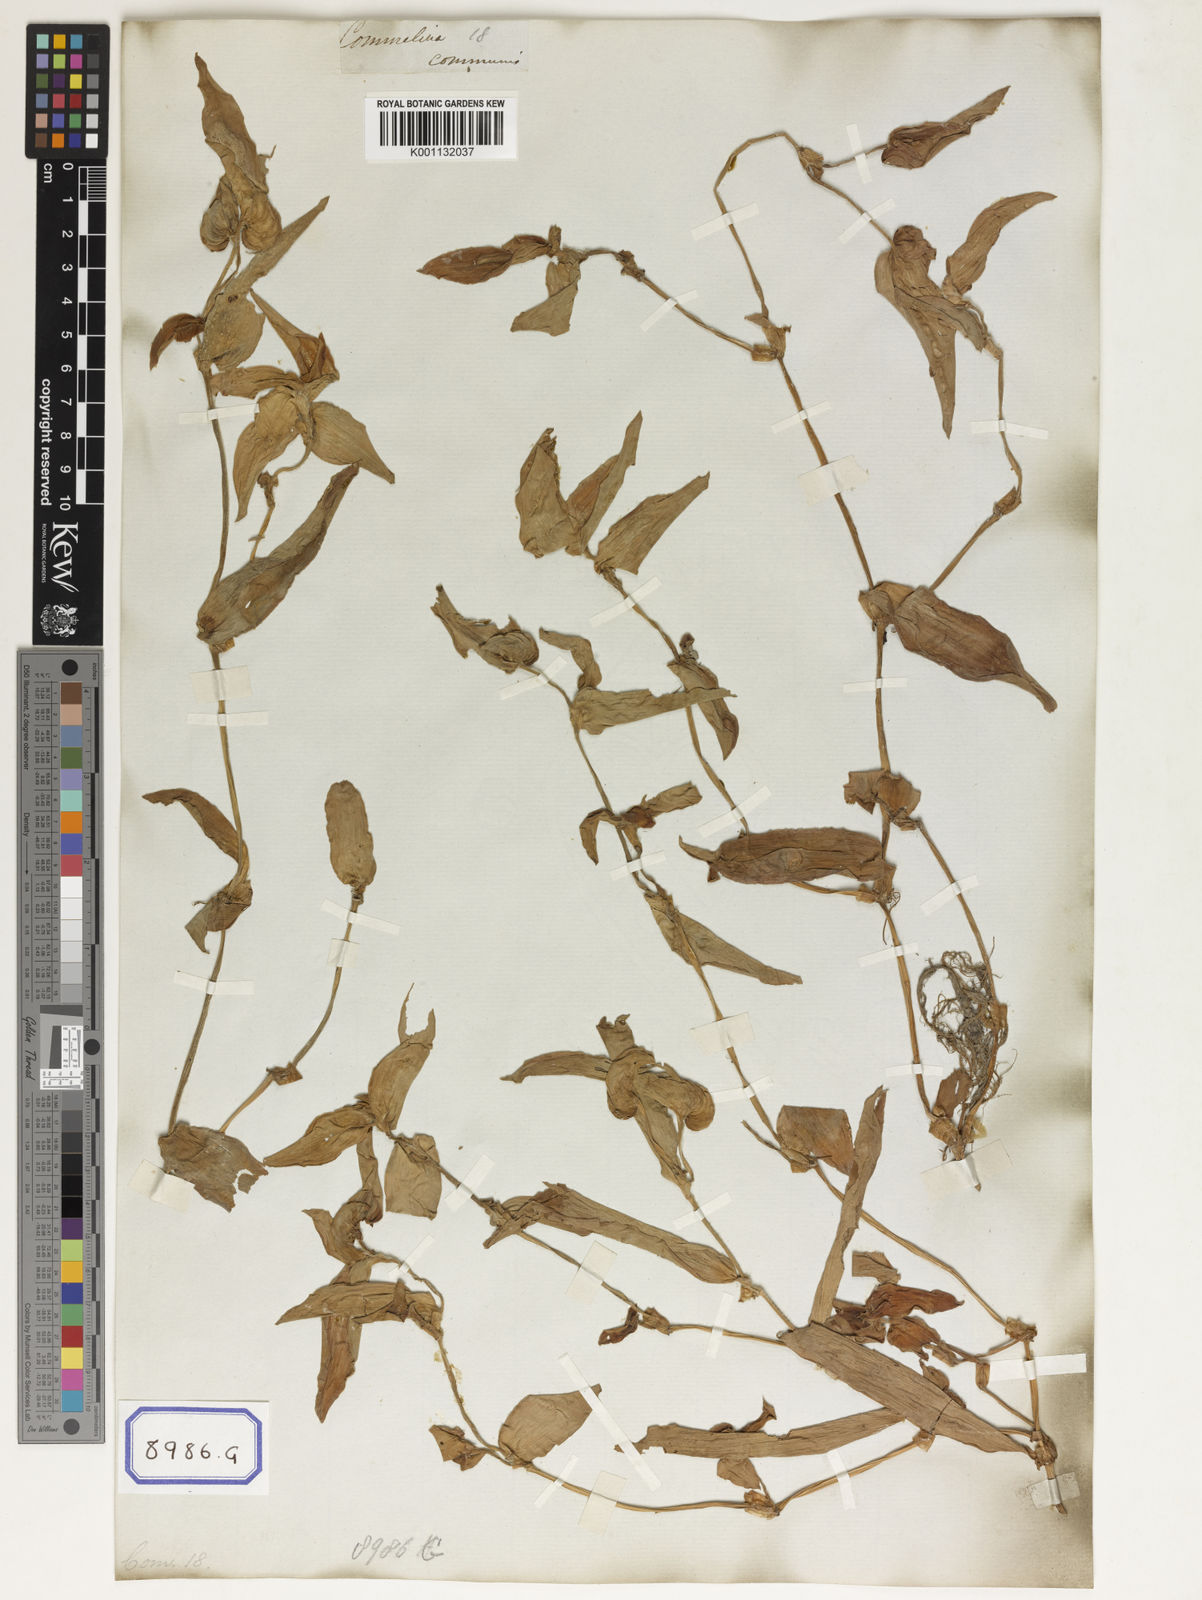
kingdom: Plantae
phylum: Tracheophyta
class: Liliopsida
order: Commelinales
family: Commelinaceae
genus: Cyanotis
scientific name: Cyanotis cristata
